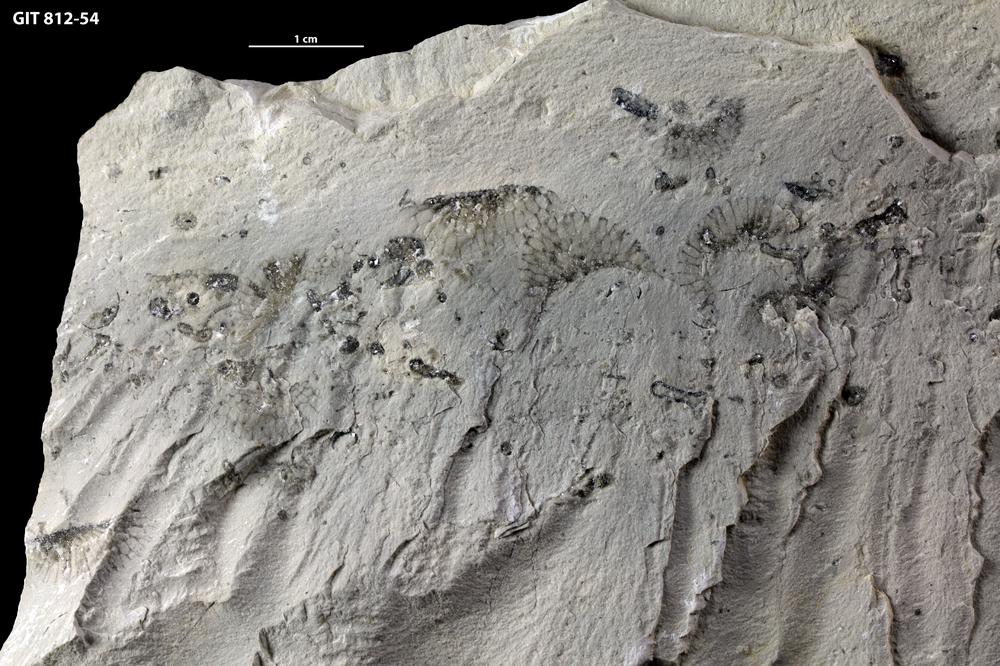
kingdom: Plantae
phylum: Chlorophyta
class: Ulvophyceae
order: Cyclocrinales
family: Coelosphaeridiaceae
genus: Coelosphaeridium
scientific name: Coelosphaeridium
